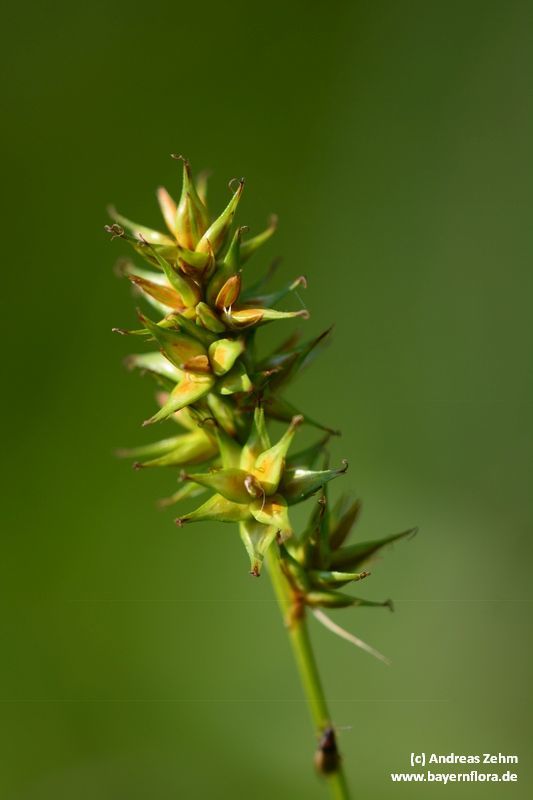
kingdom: Plantae
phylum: Tracheophyta
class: Liliopsida
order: Poales
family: Cyperaceae
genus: Carex
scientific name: Carex
